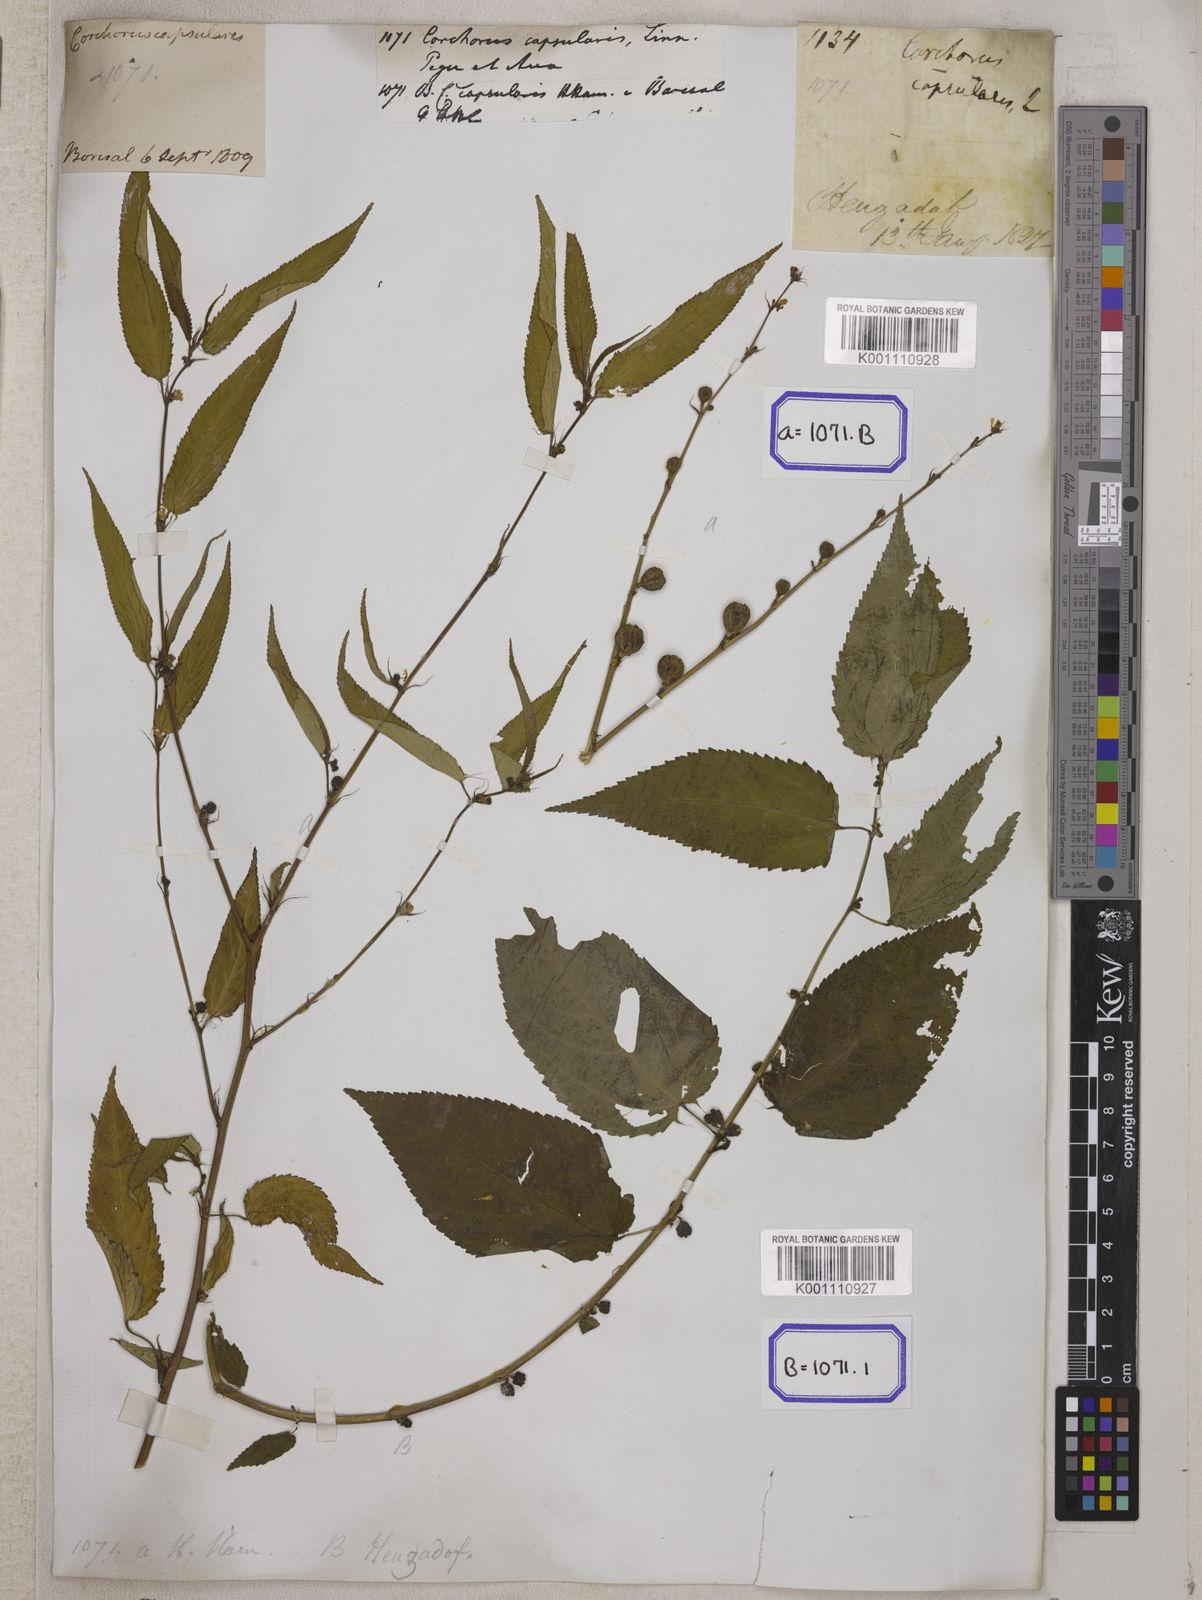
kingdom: Plantae
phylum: Tracheophyta
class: Magnoliopsida
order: Malvales
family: Malvaceae
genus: Corchorus
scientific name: Corchorus capsularis
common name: Jute
